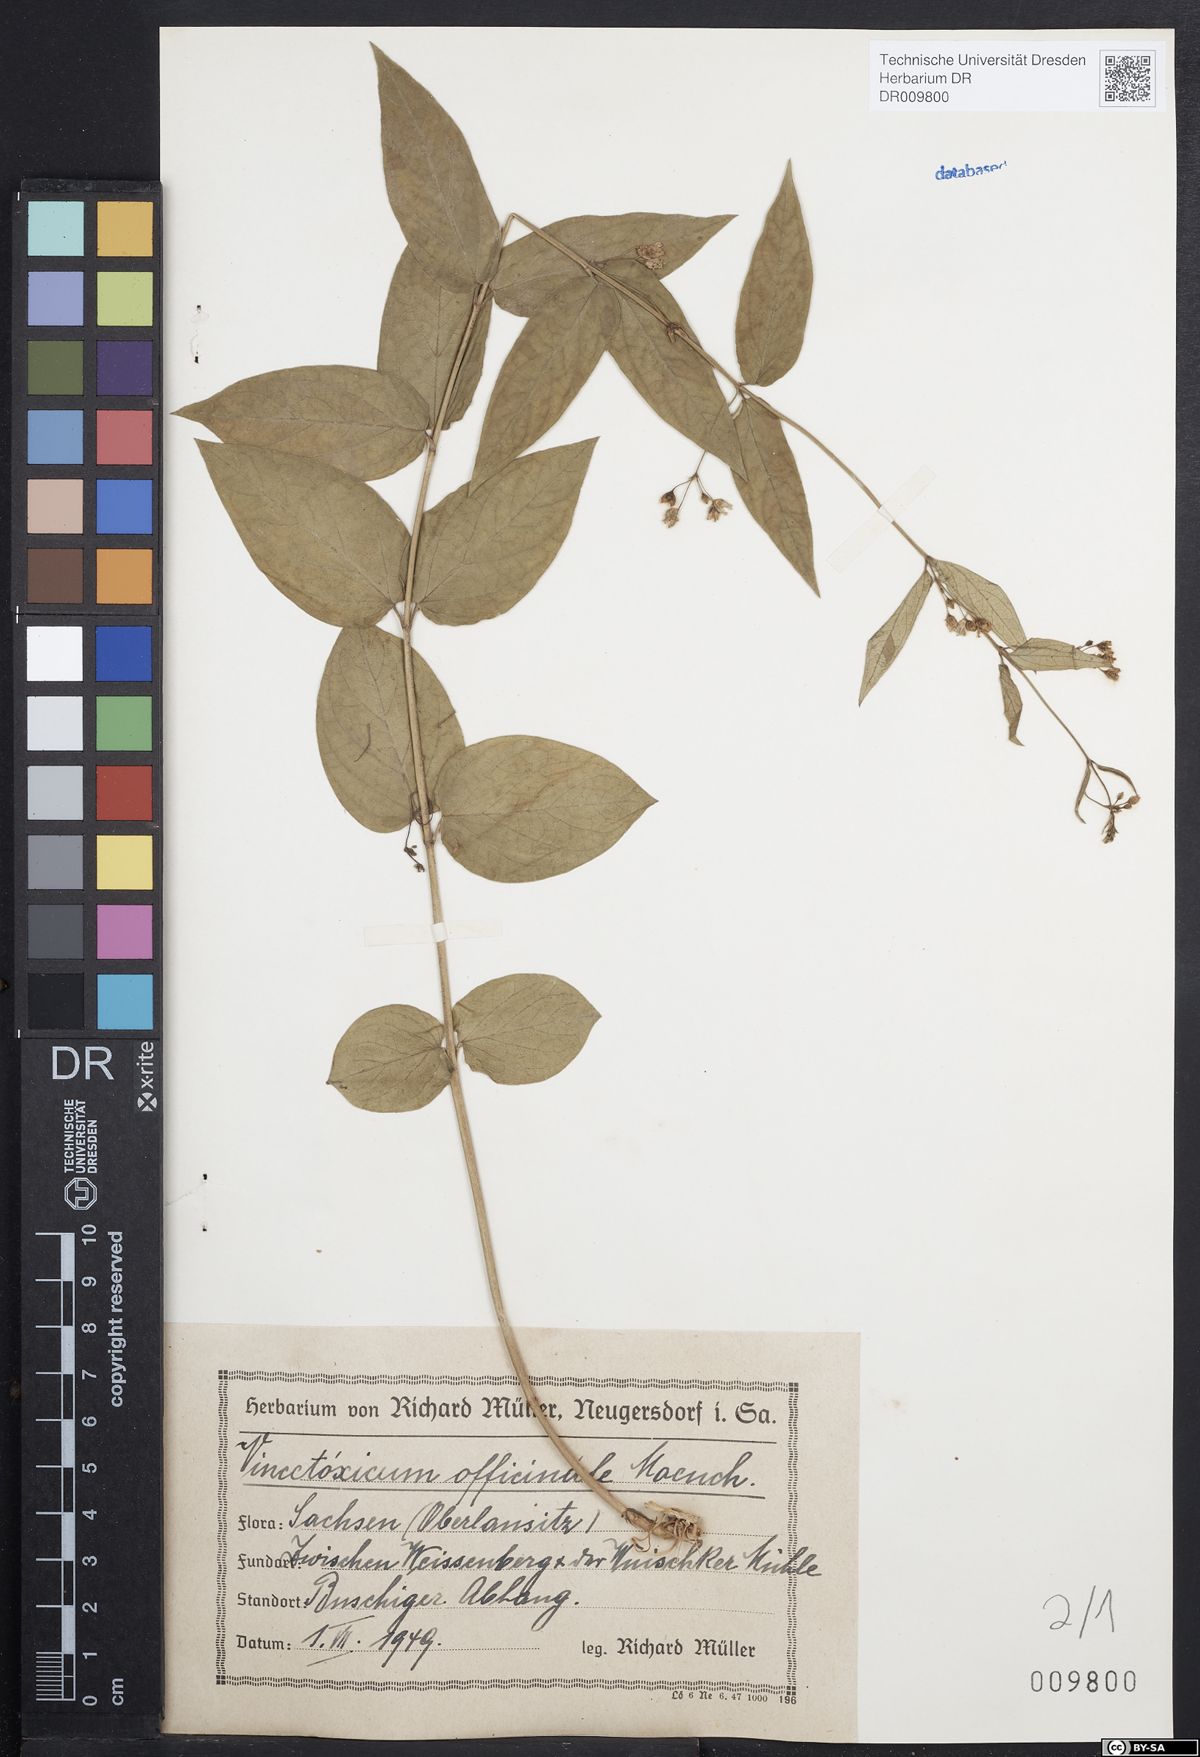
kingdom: Plantae
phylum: Tracheophyta
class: Magnoliopsida
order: Gentianales
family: Apocynaceae
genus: Vincetoxicum
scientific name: Vincetoxicum hirundinaria
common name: White swallowwort
